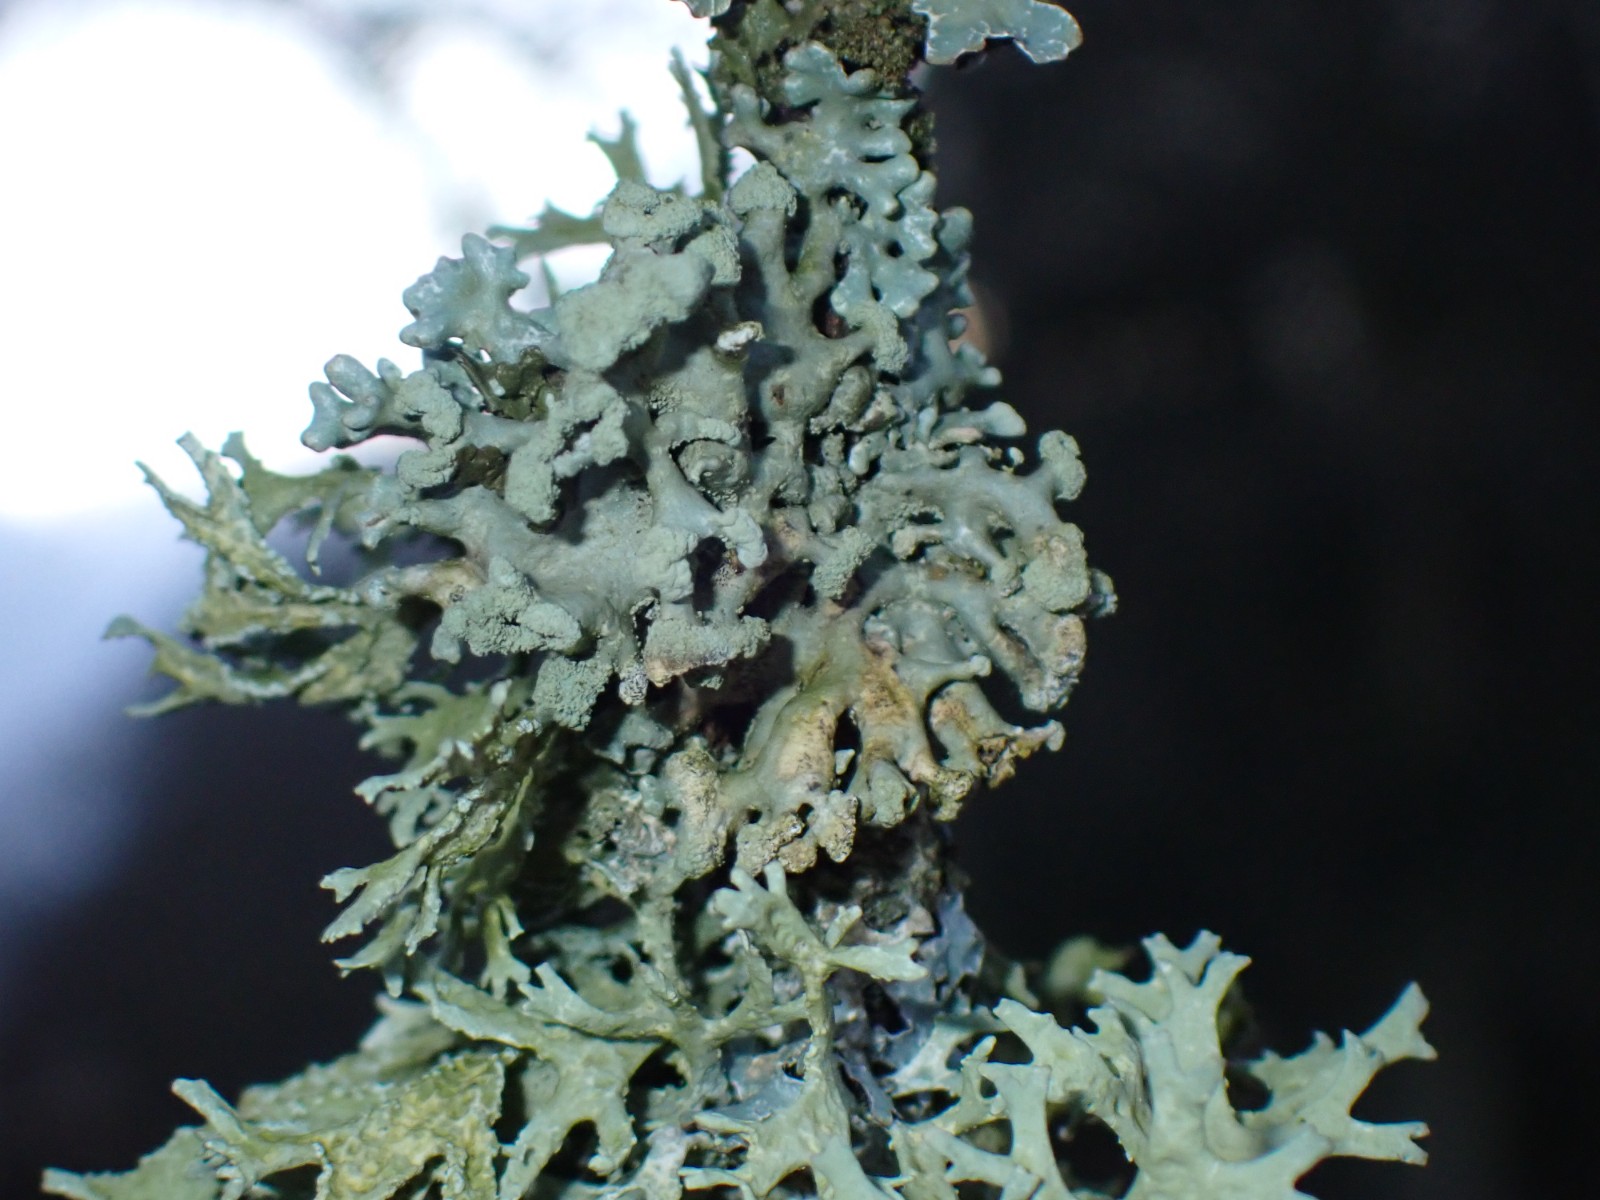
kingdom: Fungi
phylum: Ascomycota
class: Lecanoromycetes
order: Lecanorales
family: Parmeliaceae
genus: Hypogymnia
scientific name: Hypogymnia tubulosa
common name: finger-kvistlav
